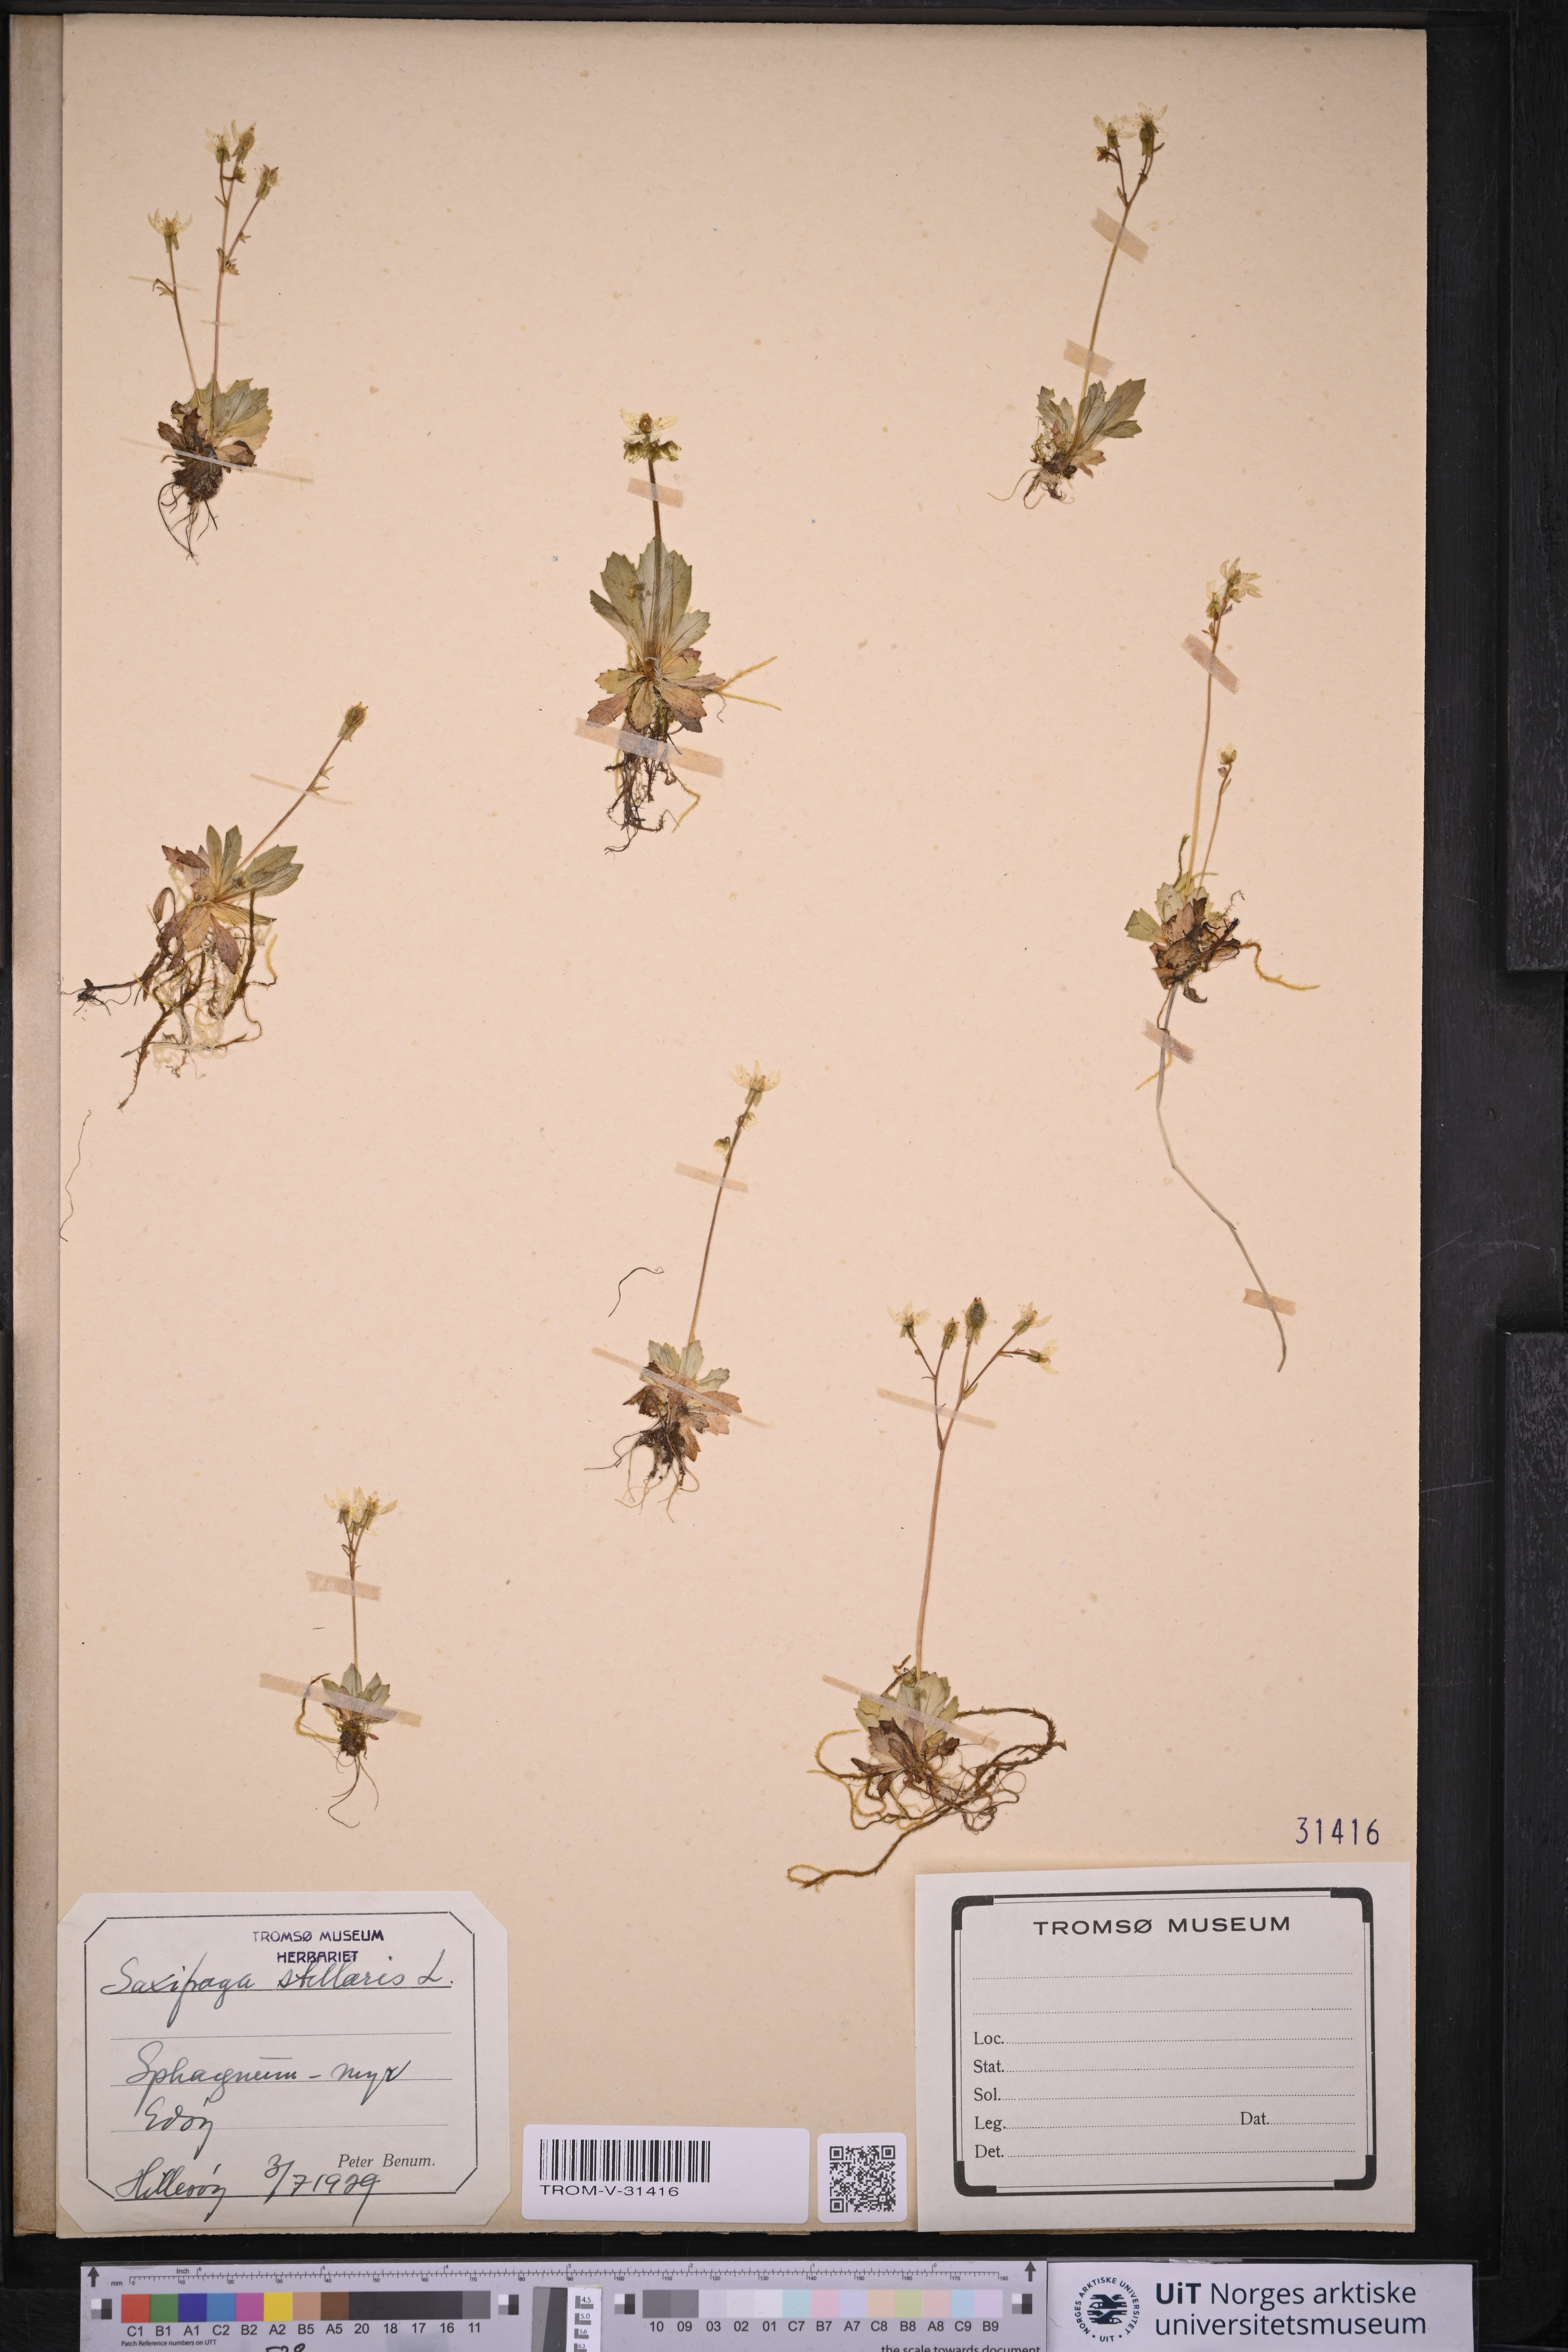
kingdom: Plantae
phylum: Tracheophyta
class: Magnoliopsida
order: Saxifragales
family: Saxifragaceae
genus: Micranthes
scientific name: Micranthes stellaris
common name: Starry saxifrage
